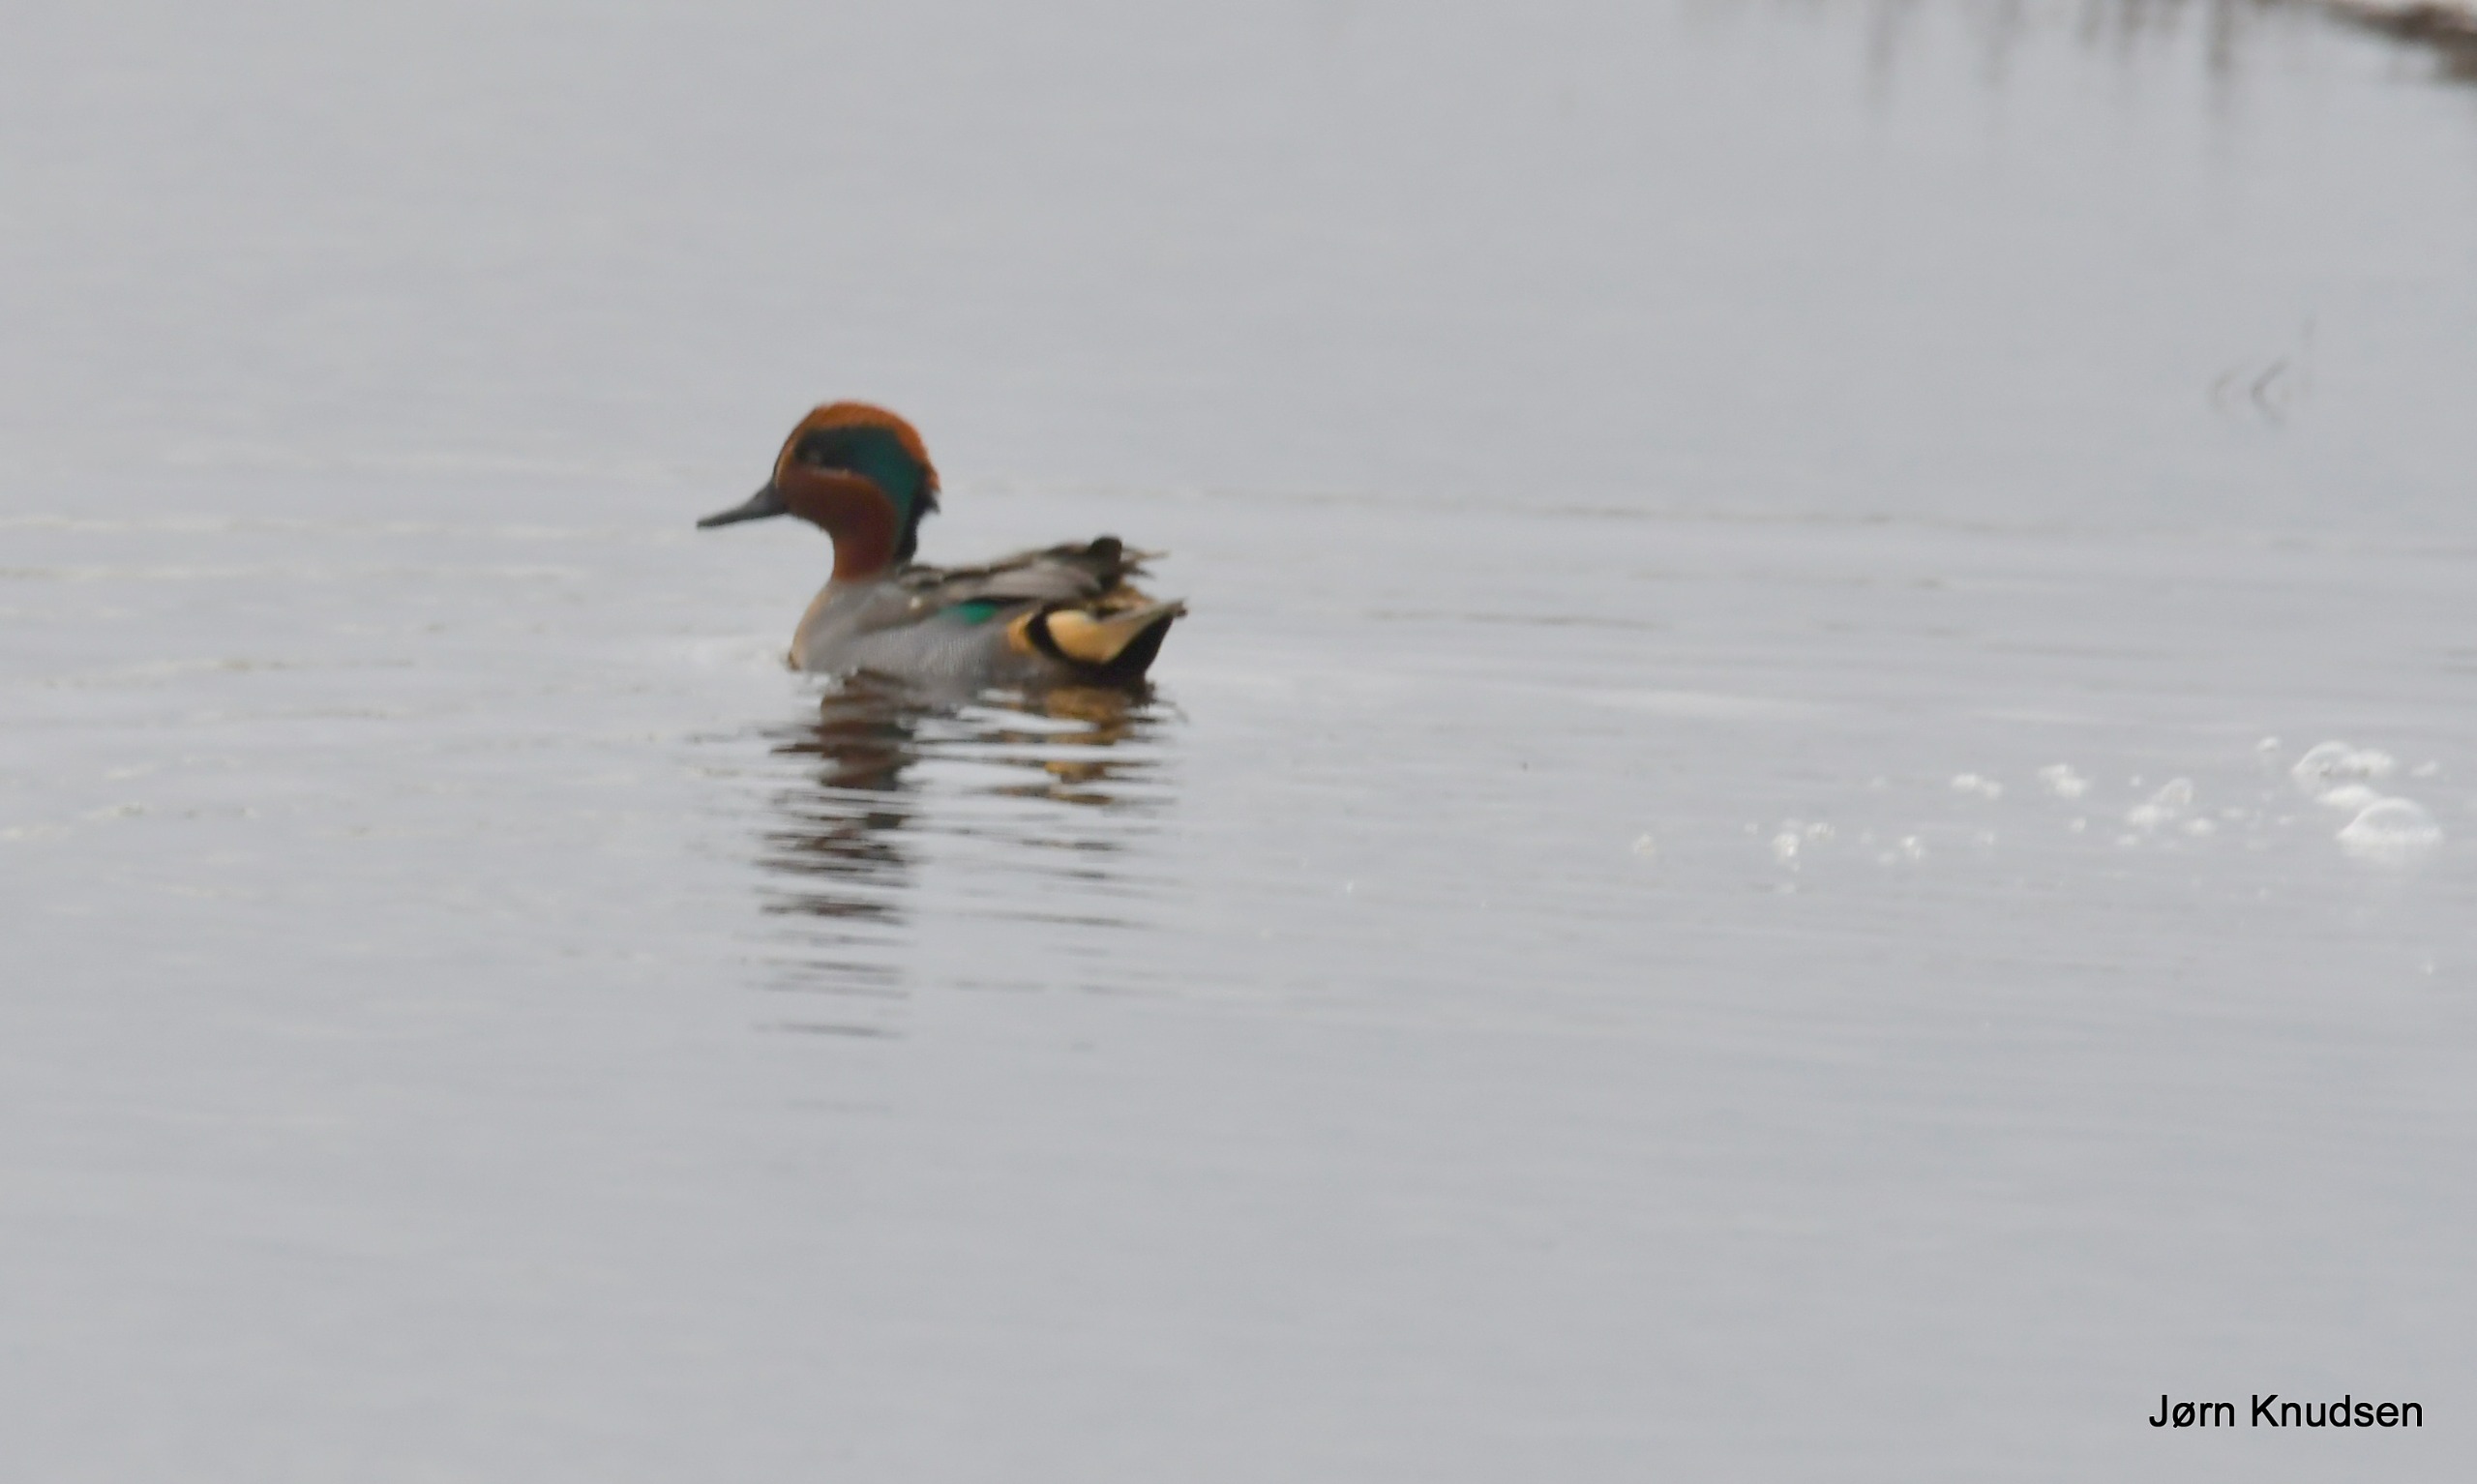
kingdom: Animalia
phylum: Chordata
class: Aves
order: Anseriformes
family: Anatidae
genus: Anas
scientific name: Anas crecca
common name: Krikand
